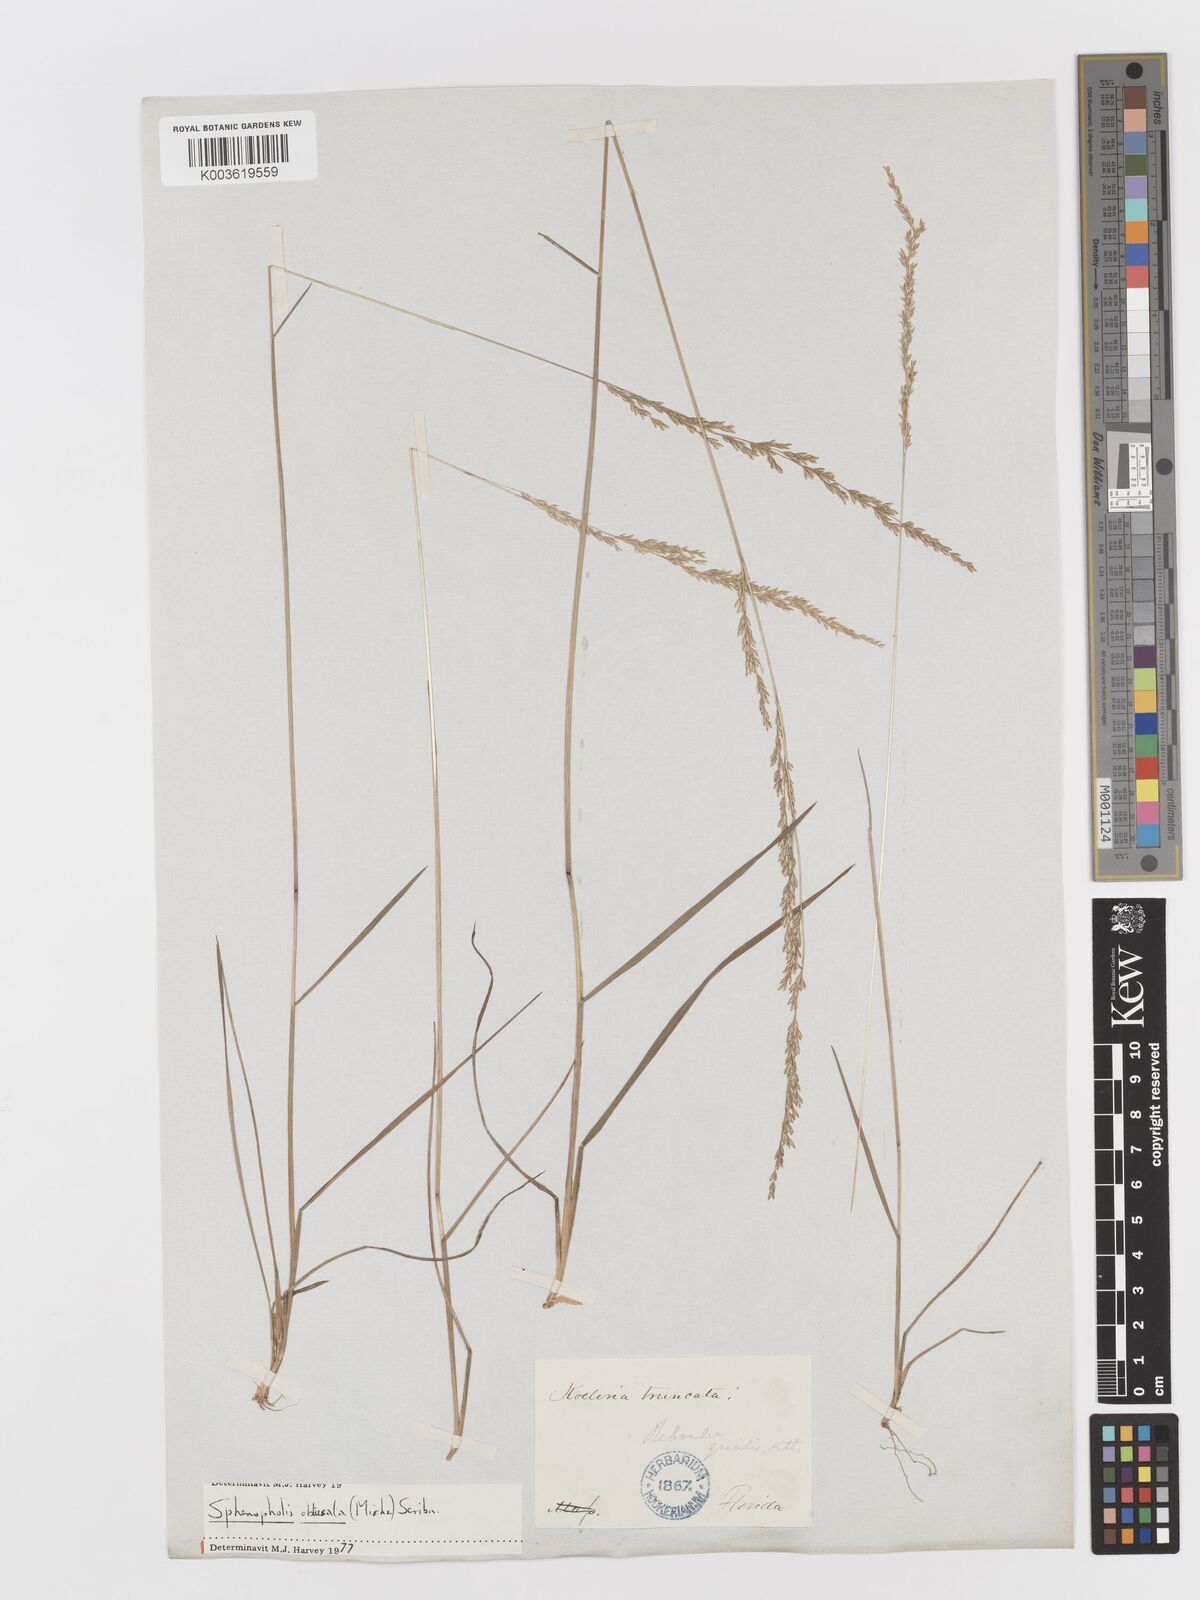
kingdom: Plantae
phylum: Tracheophyta
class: Liliopsida
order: Poales
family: Poaceae
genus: Sphenopholis
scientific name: Sphenopholis obtusata
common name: Prairie grass
